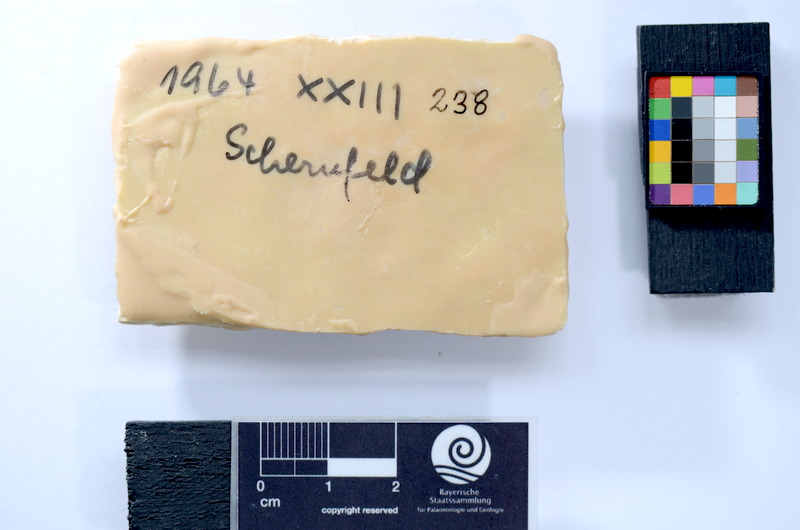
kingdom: Animalia
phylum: Chordata
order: Salmoniformes
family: Orthogonikleithridae
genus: Leptolepides
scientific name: Leptolepides
